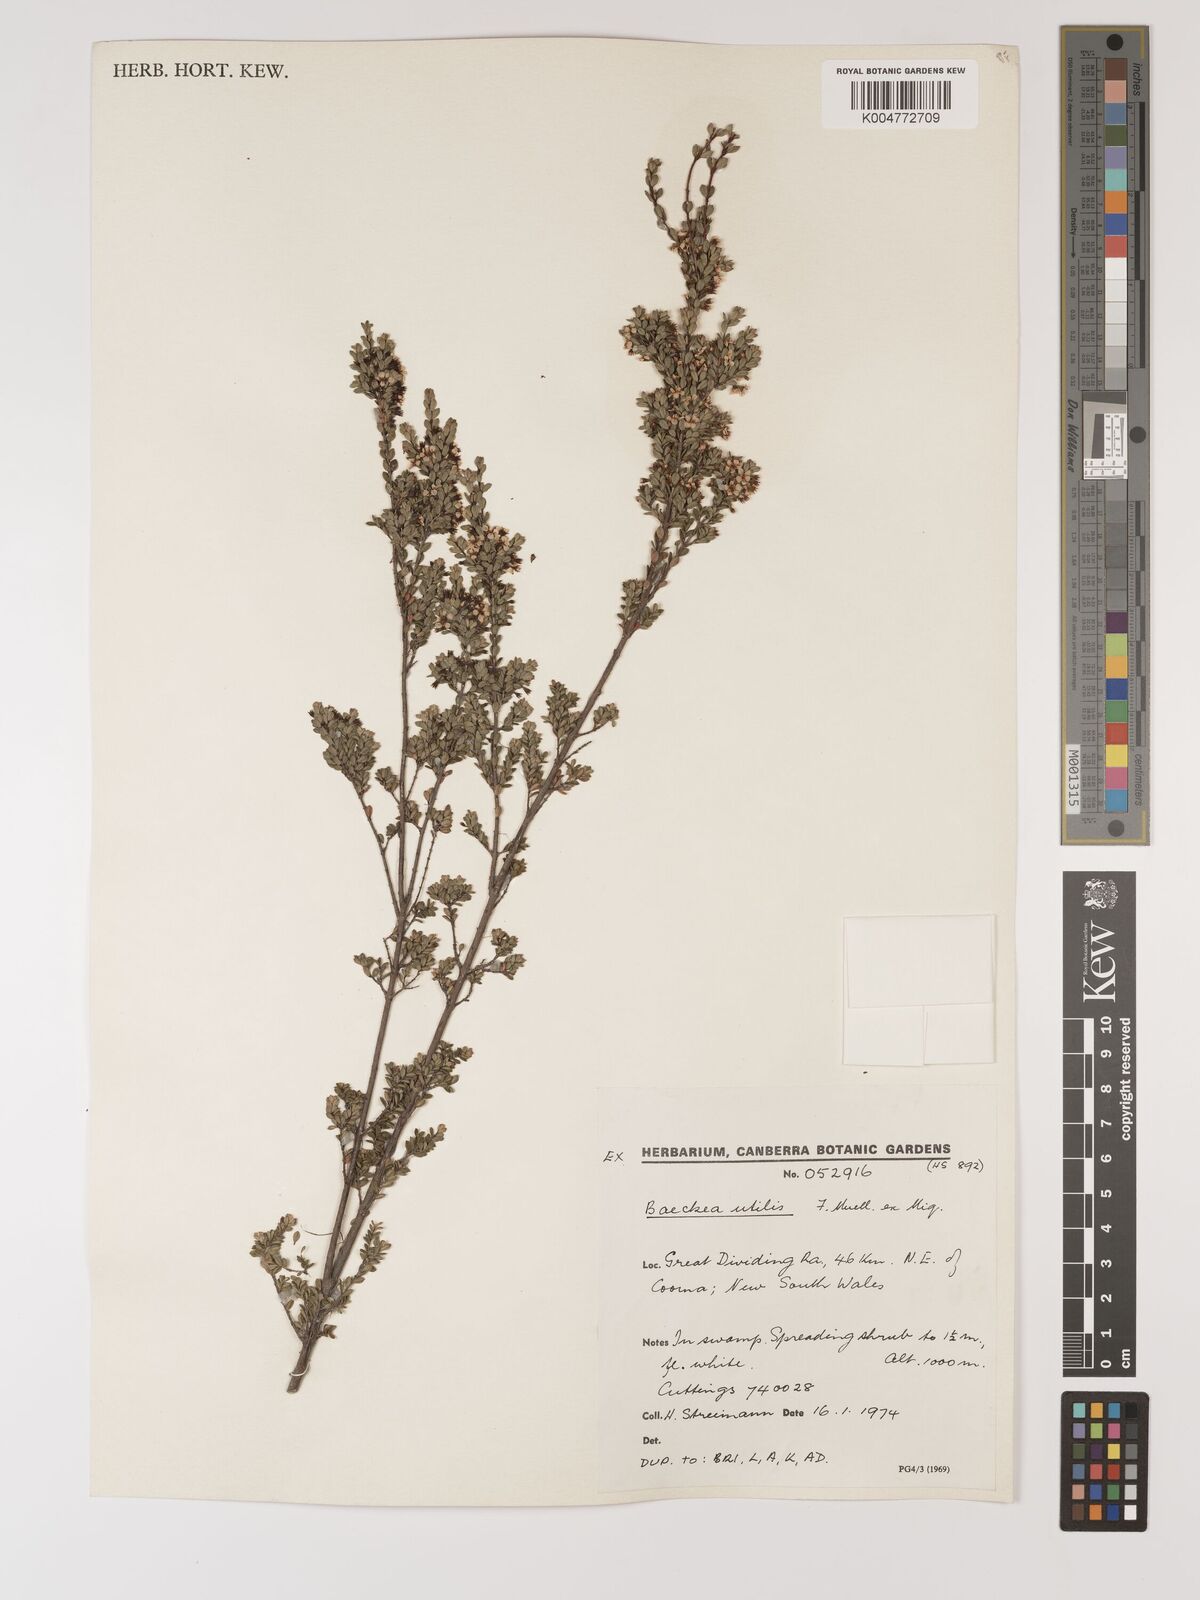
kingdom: Plantae
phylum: Tracheophyta
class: Magnoliopsida
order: Myrtales
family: Myrtaceae
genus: Baeckea
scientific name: Baeckea gunniana
